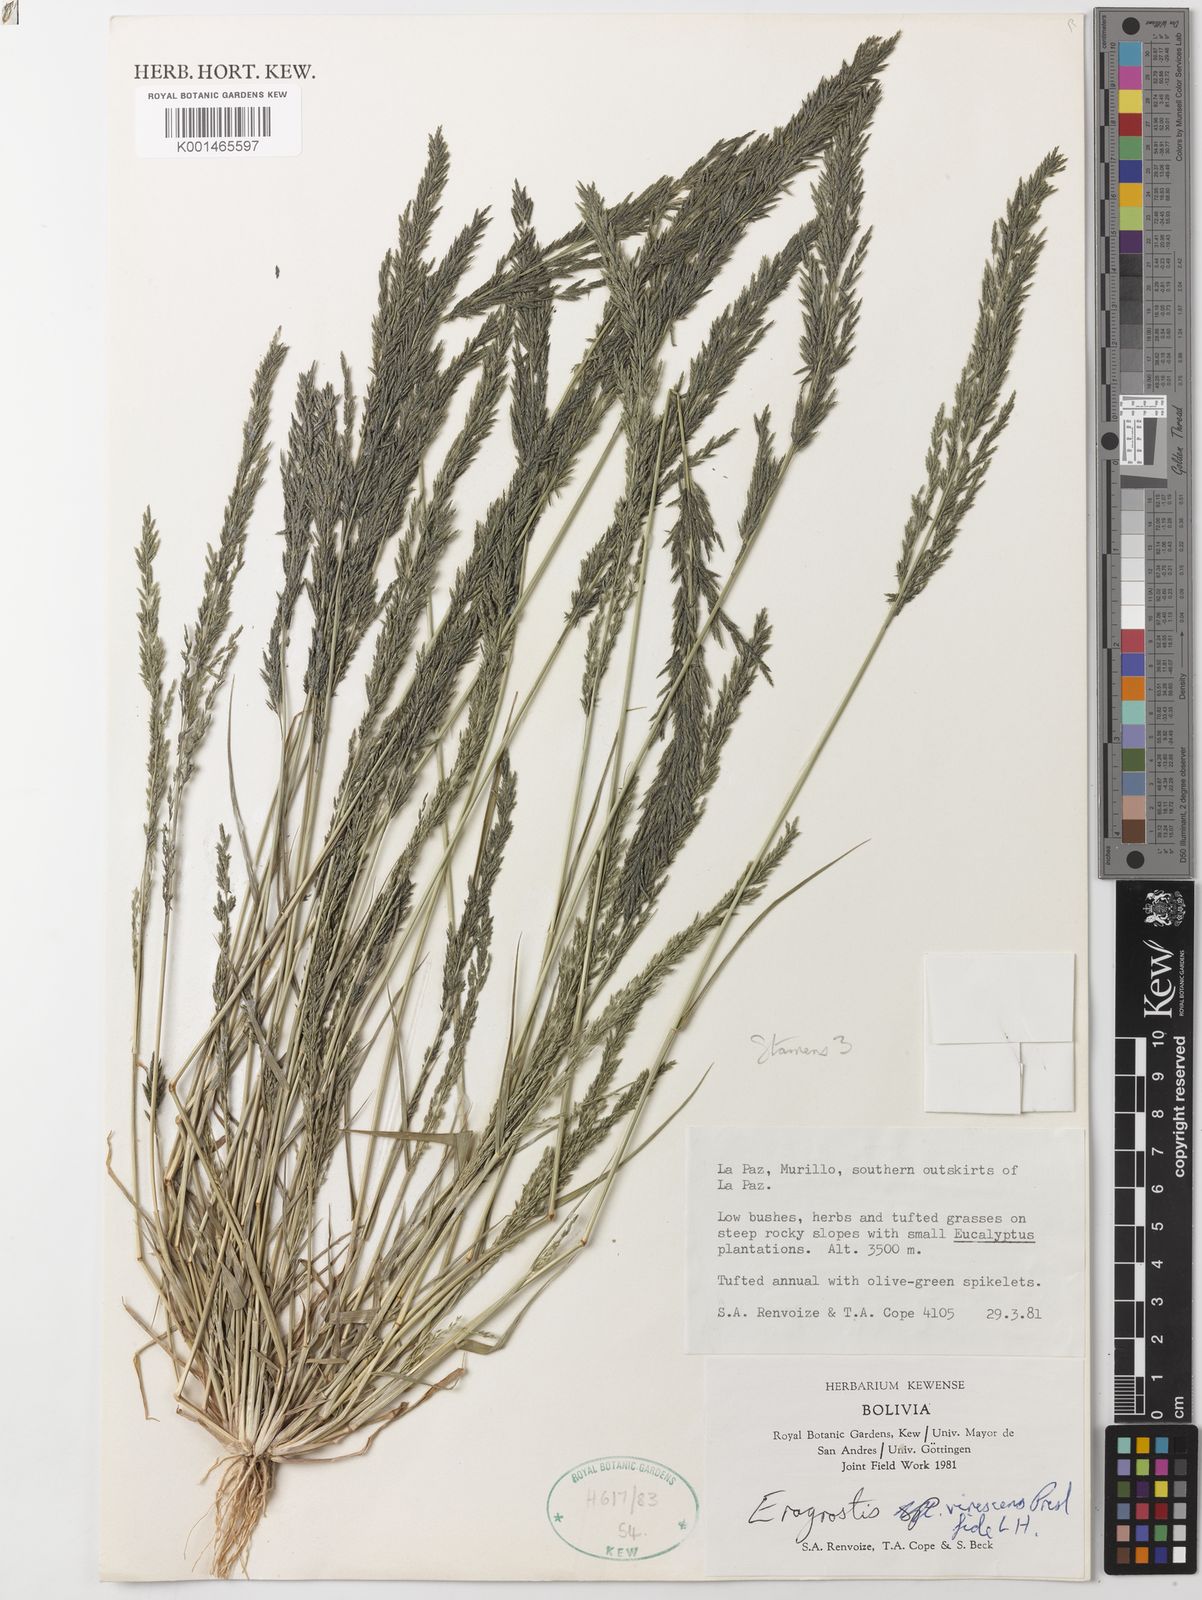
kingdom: Plantae
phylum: Tracheophyta
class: Liliopsida
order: Poales
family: Poaceae
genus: Eragrostis
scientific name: Eragrostis pastoensis
